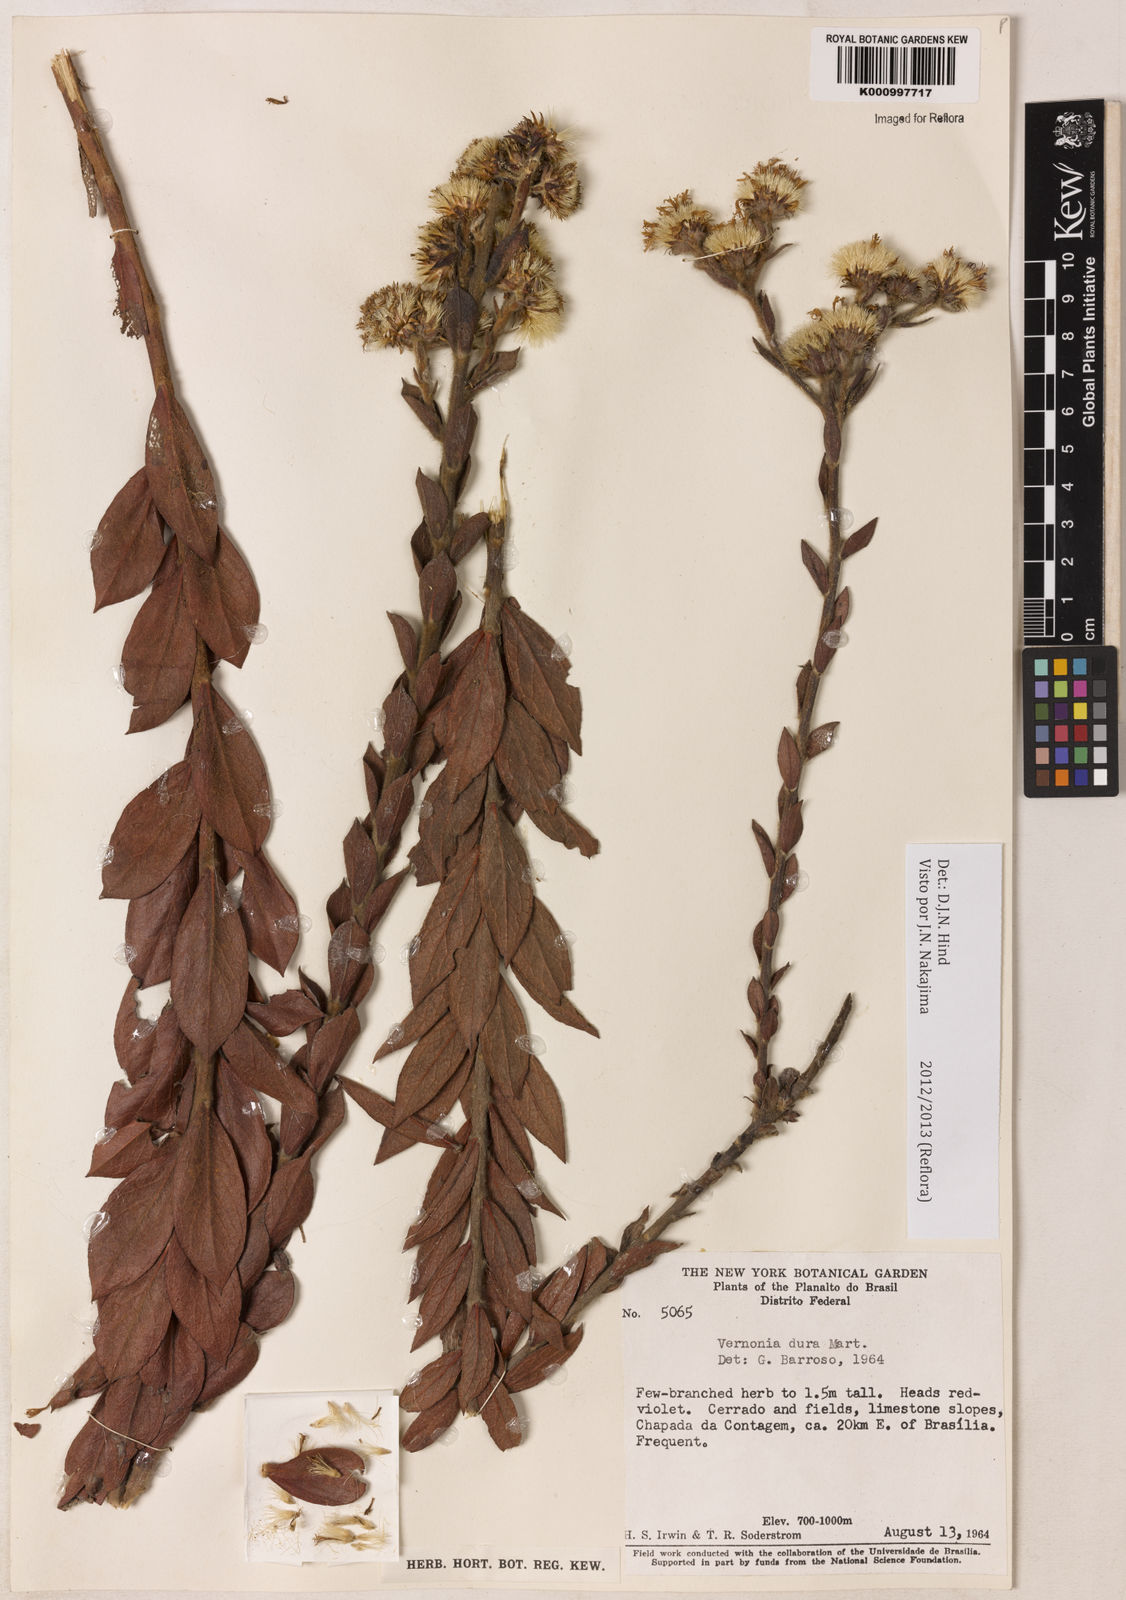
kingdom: Plantae
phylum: Tracheophyta
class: Magnoliopsida
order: Asterales
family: Asteraceae
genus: Lessingianthus
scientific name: Lessingianthus durus
